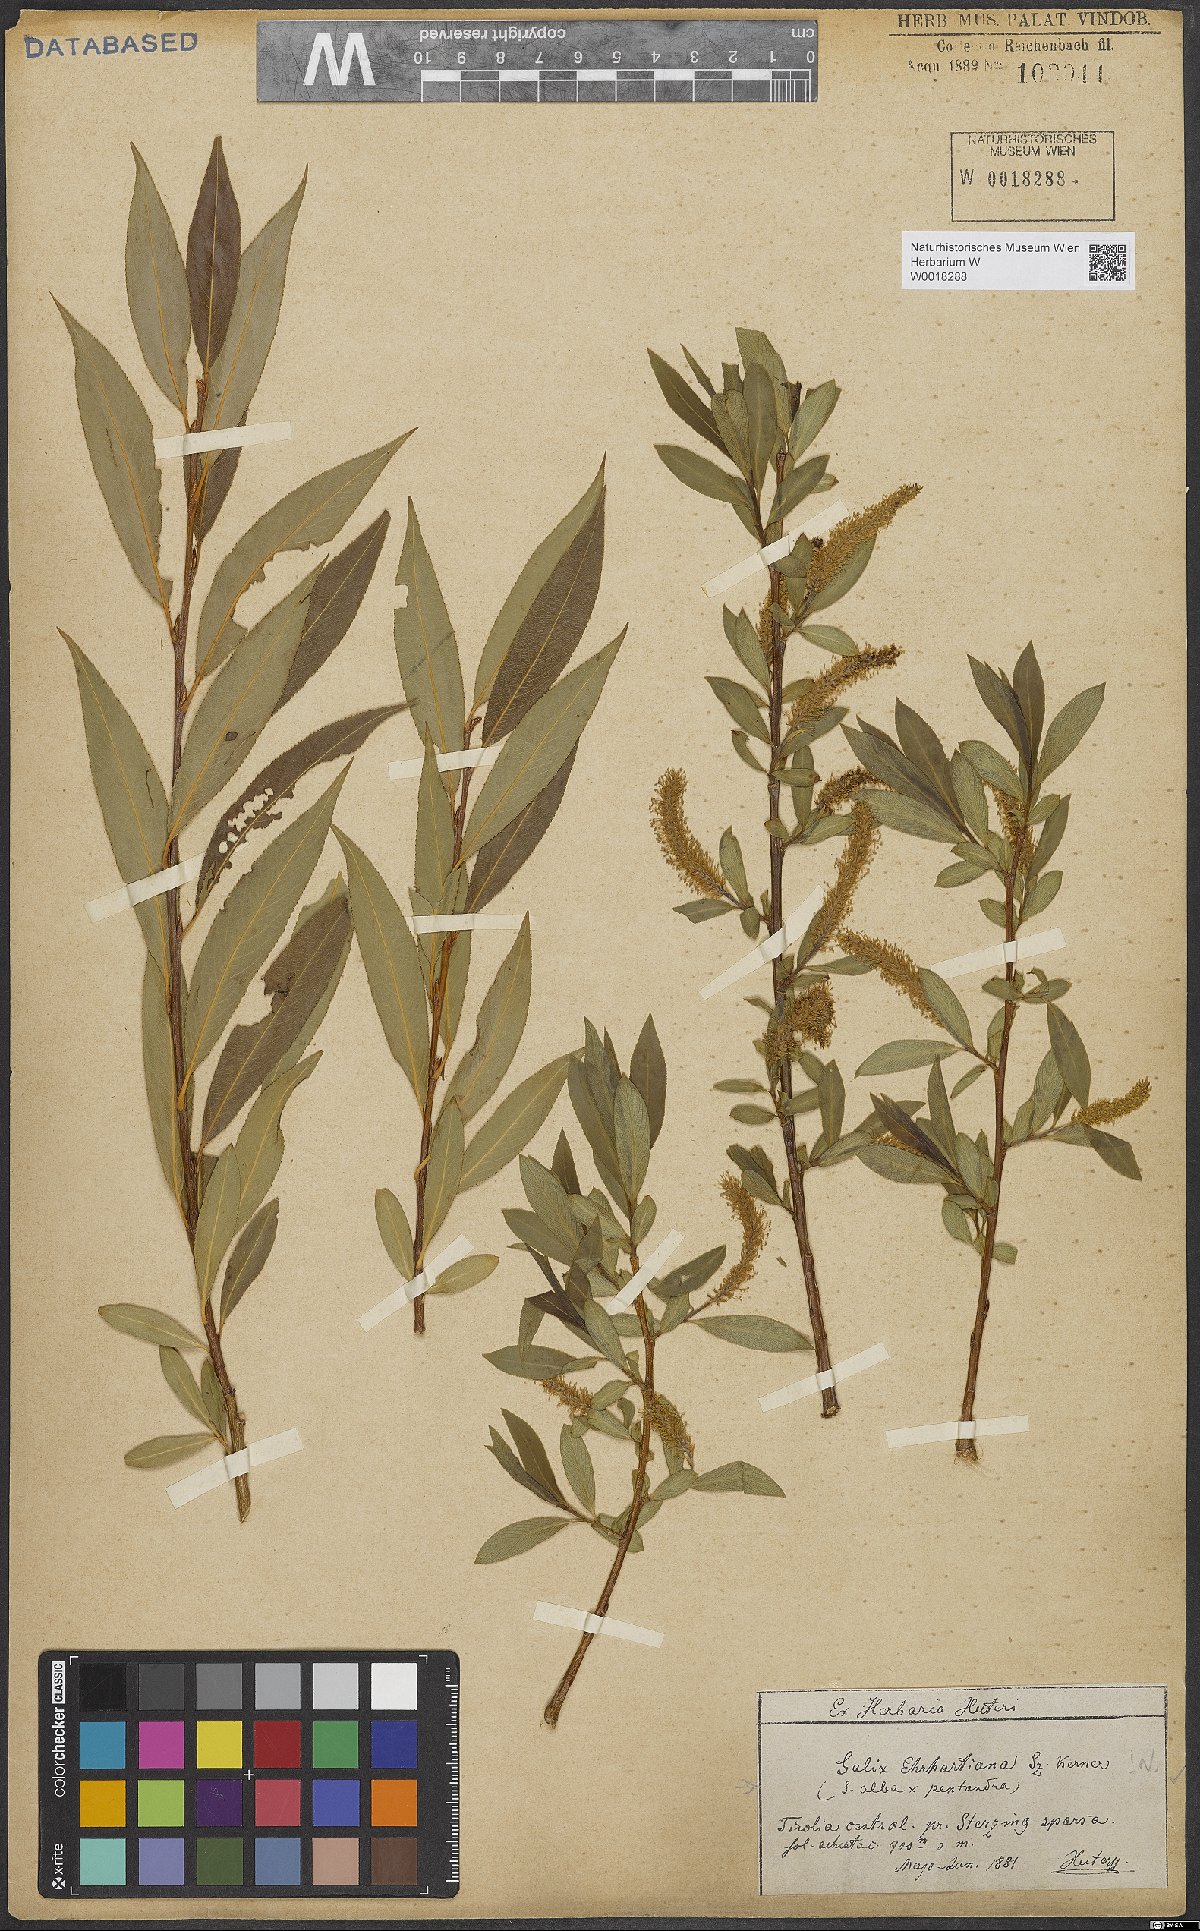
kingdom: Plantae
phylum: Tracheophyta
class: Magnoliopsida
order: Malpighiales
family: Salicaceae
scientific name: Salicaceae
